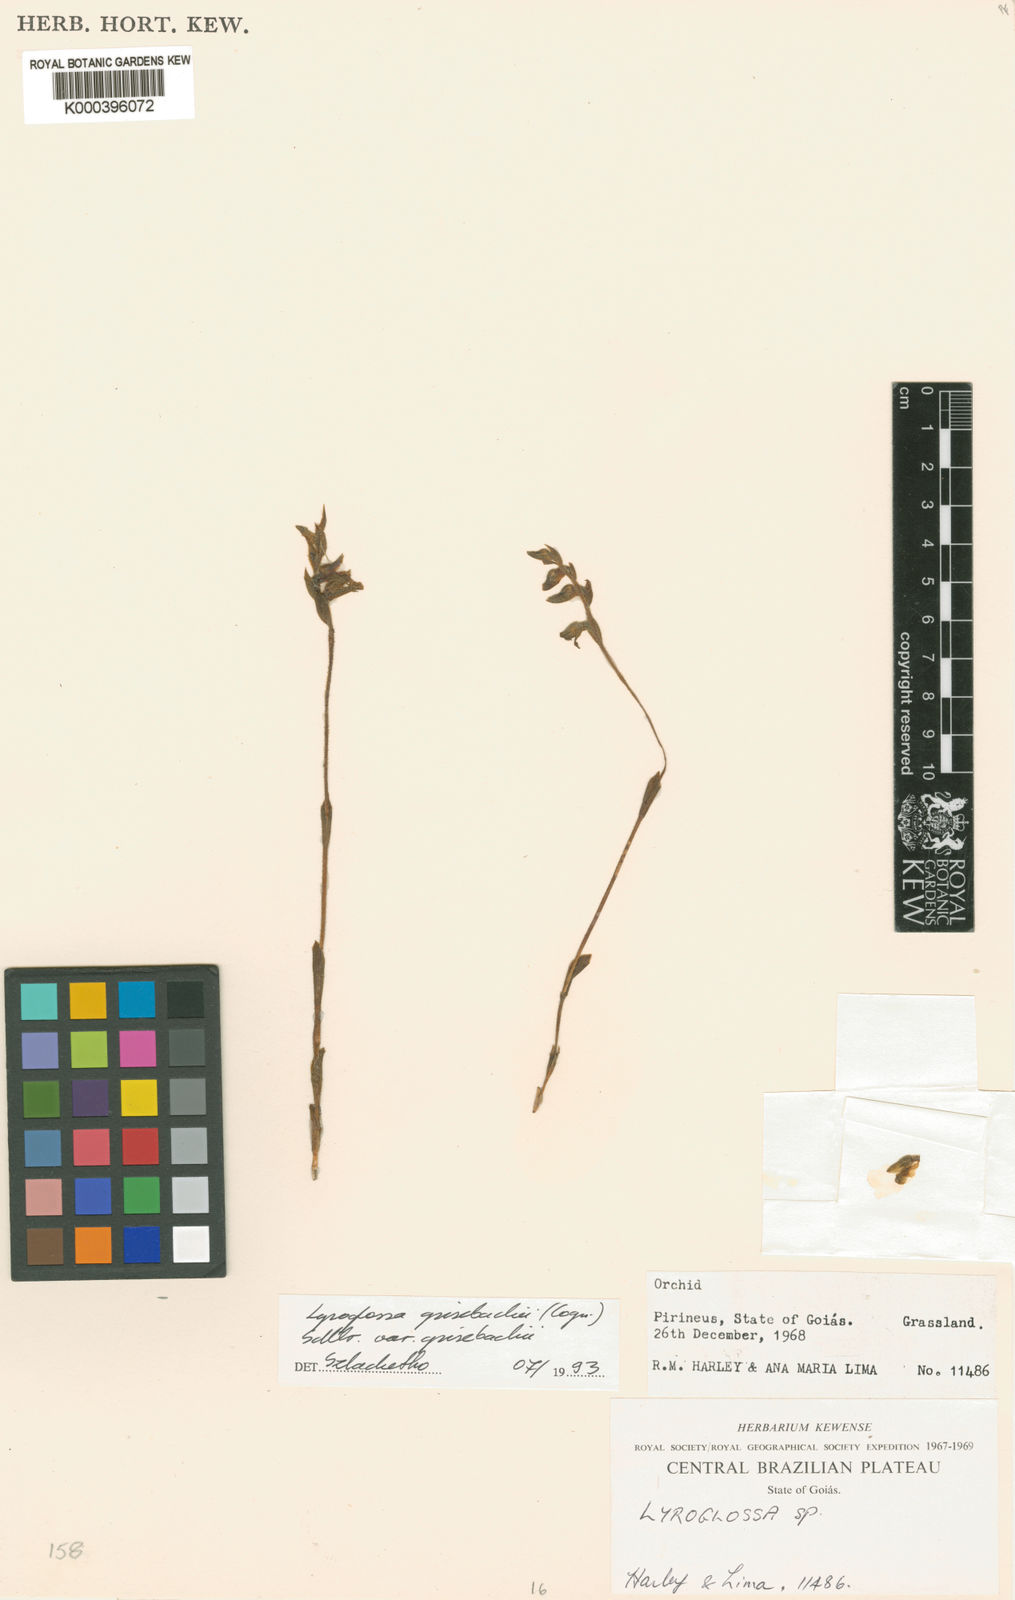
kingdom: Plantae
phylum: Tracheophyta
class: Liliopsida
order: Asparagales
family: Orchidaceae
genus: Lyroglossa
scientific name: Lyroglossa grisebachii
